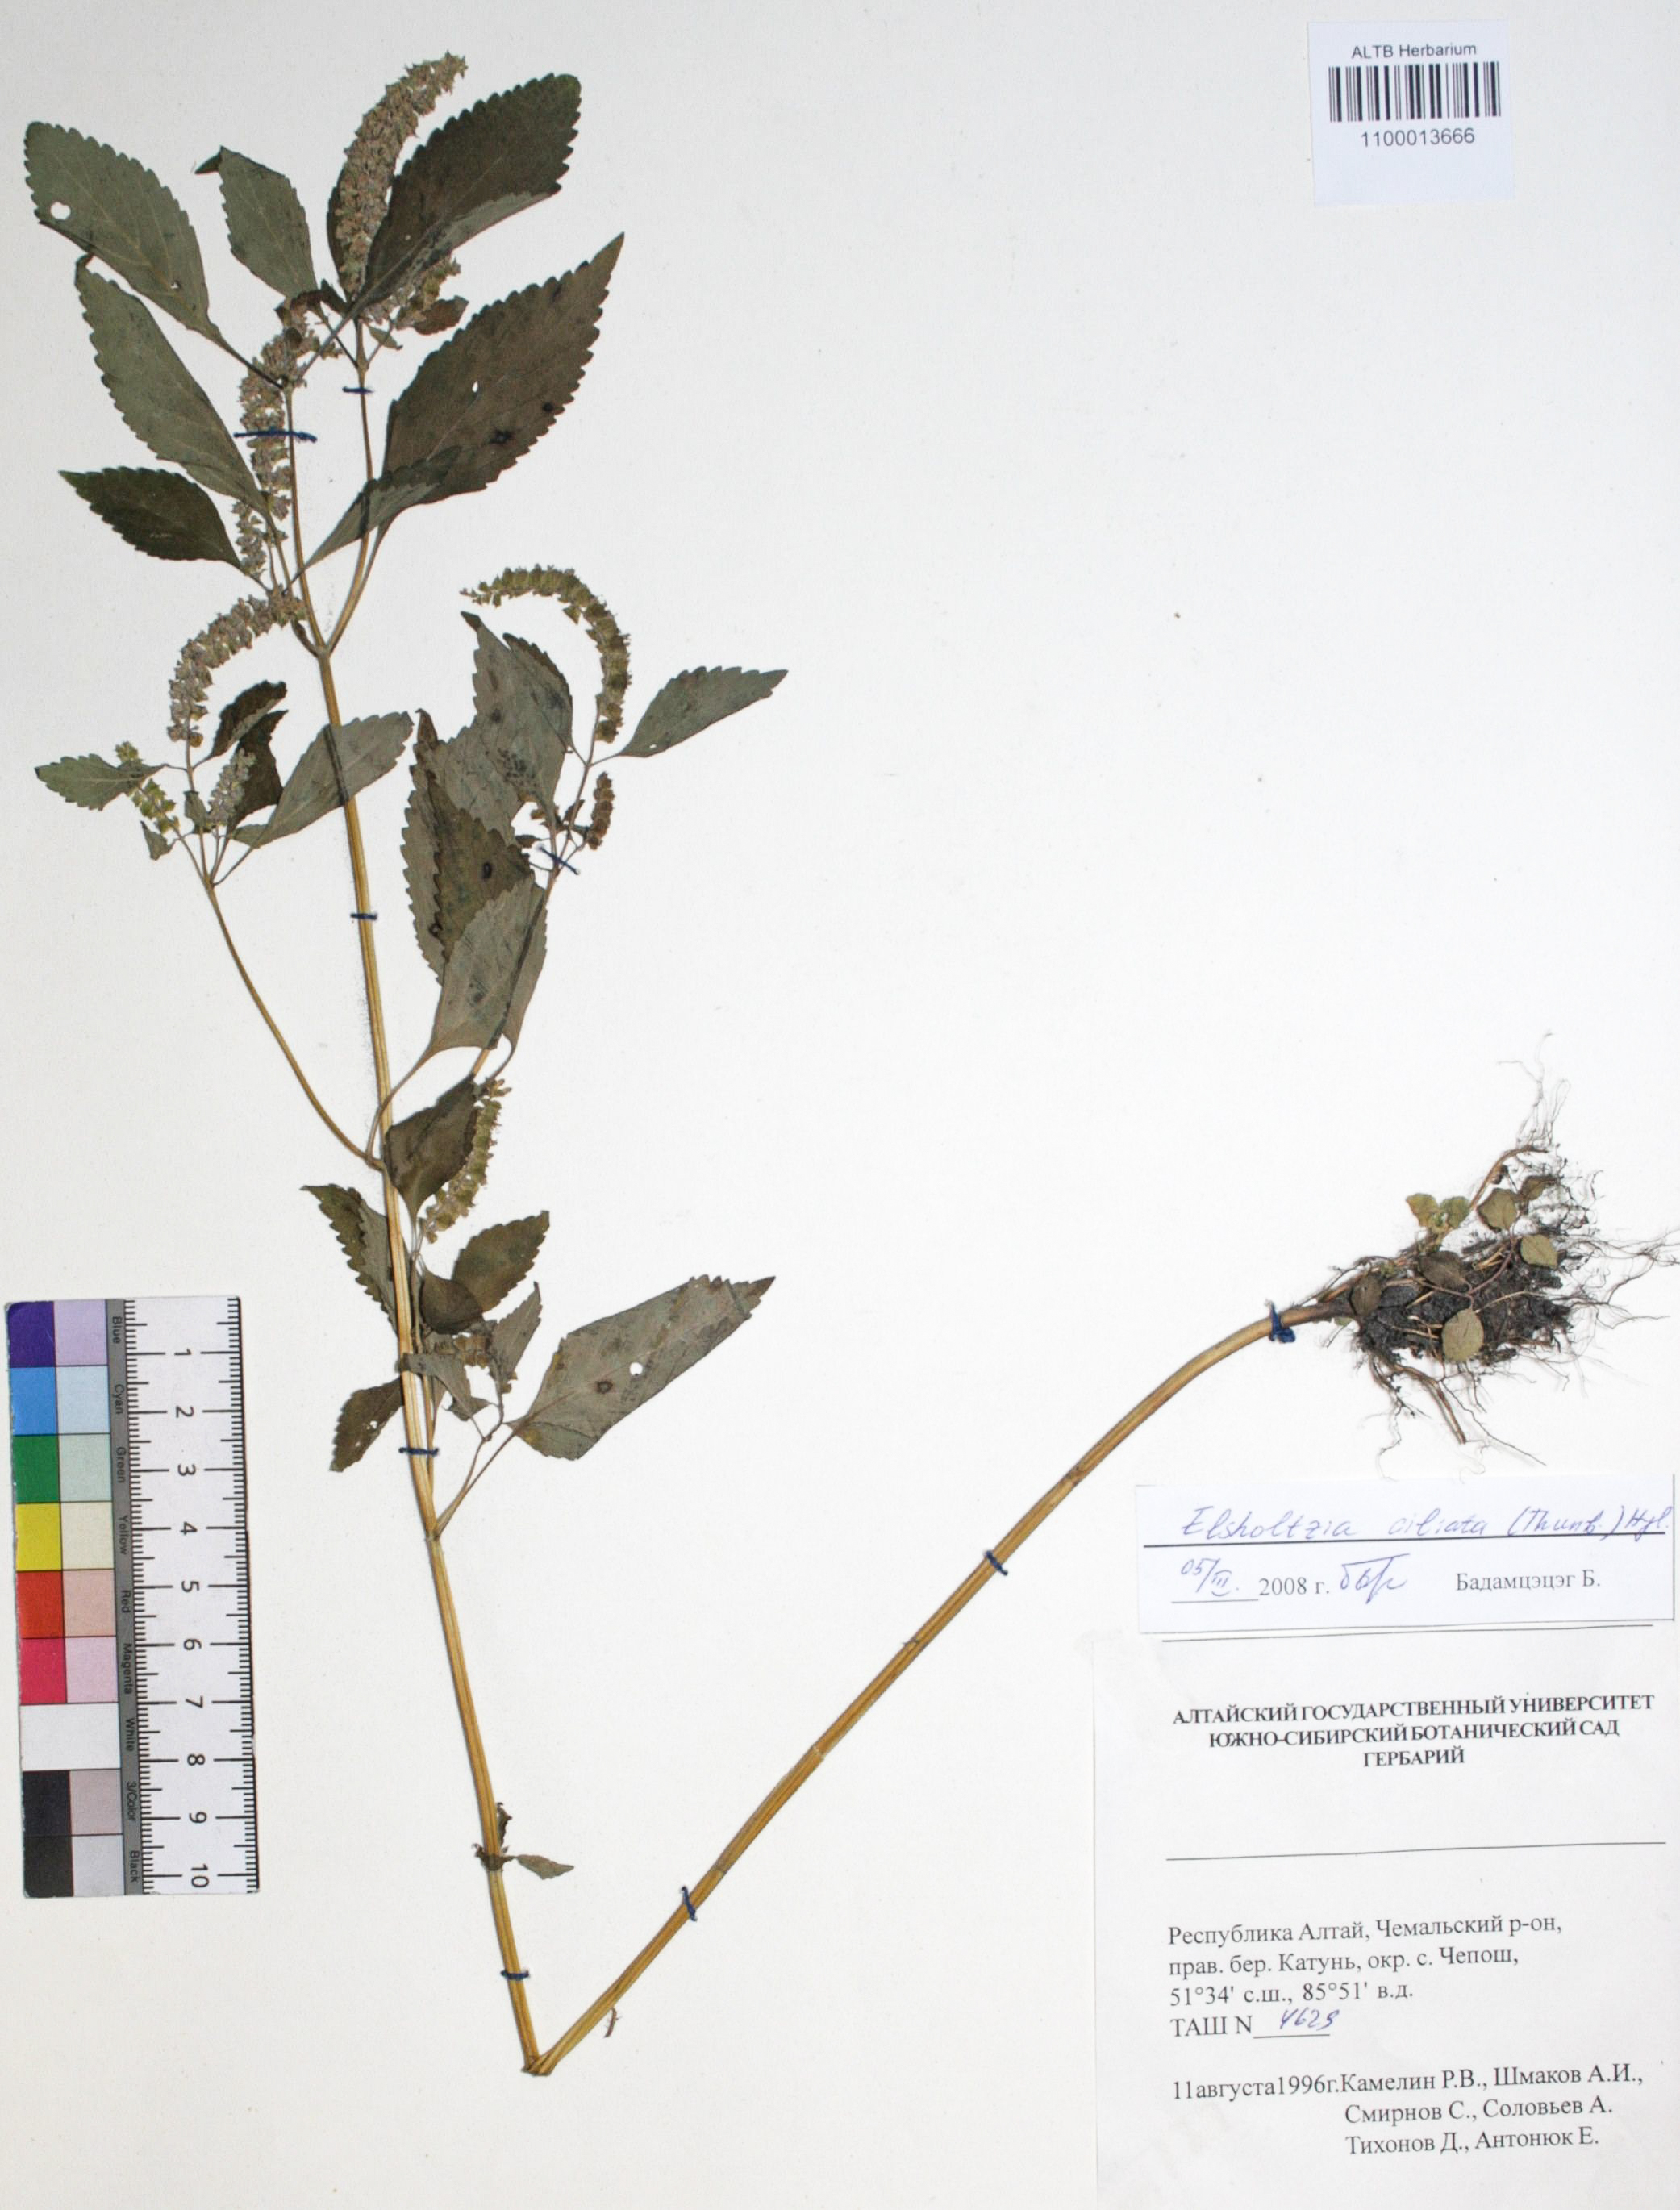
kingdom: Plantae
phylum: Tracheophyta
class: Magnoliopsida
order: Lamiales
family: Lamiaceae
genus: Elsholtzia
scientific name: Elsholtzia ciliata
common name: Ciliate elsholtzia
